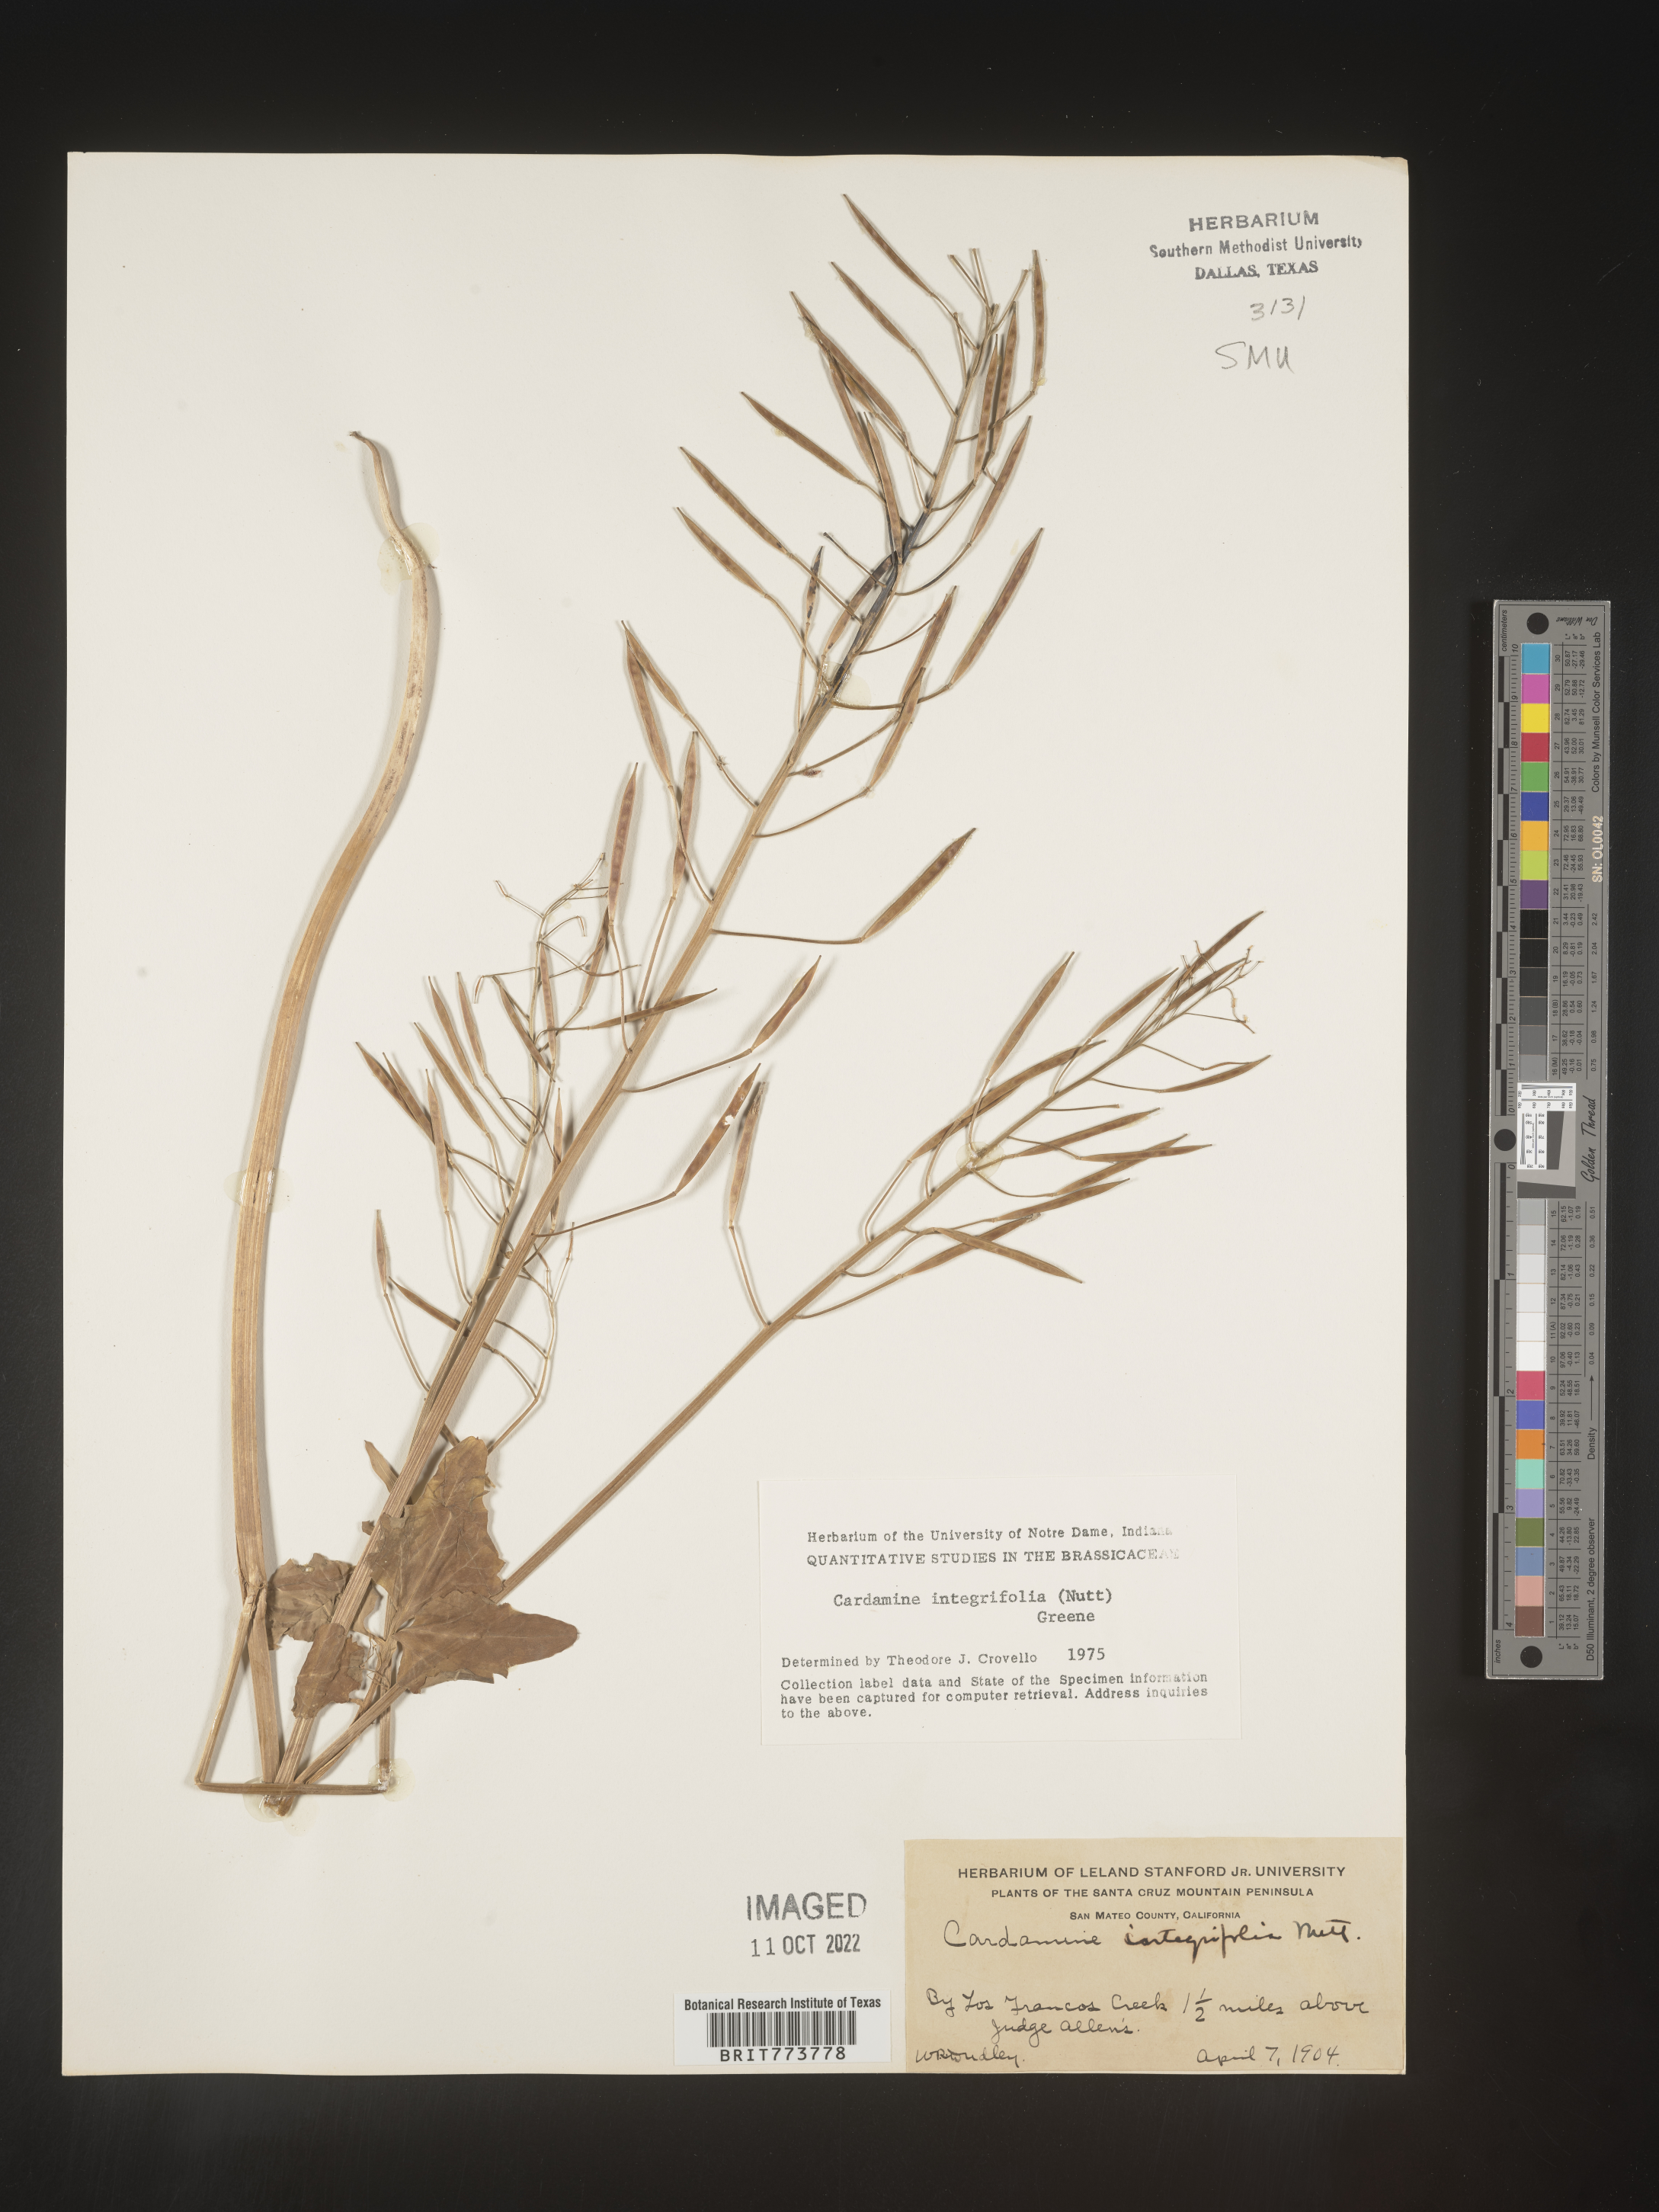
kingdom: Plantae
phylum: Tracheophyta
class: Magnoliopsida
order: Brassicales
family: Brassicaceae
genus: Cardamine
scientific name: Cardamine bellidifolia
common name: Alpine bittercress
